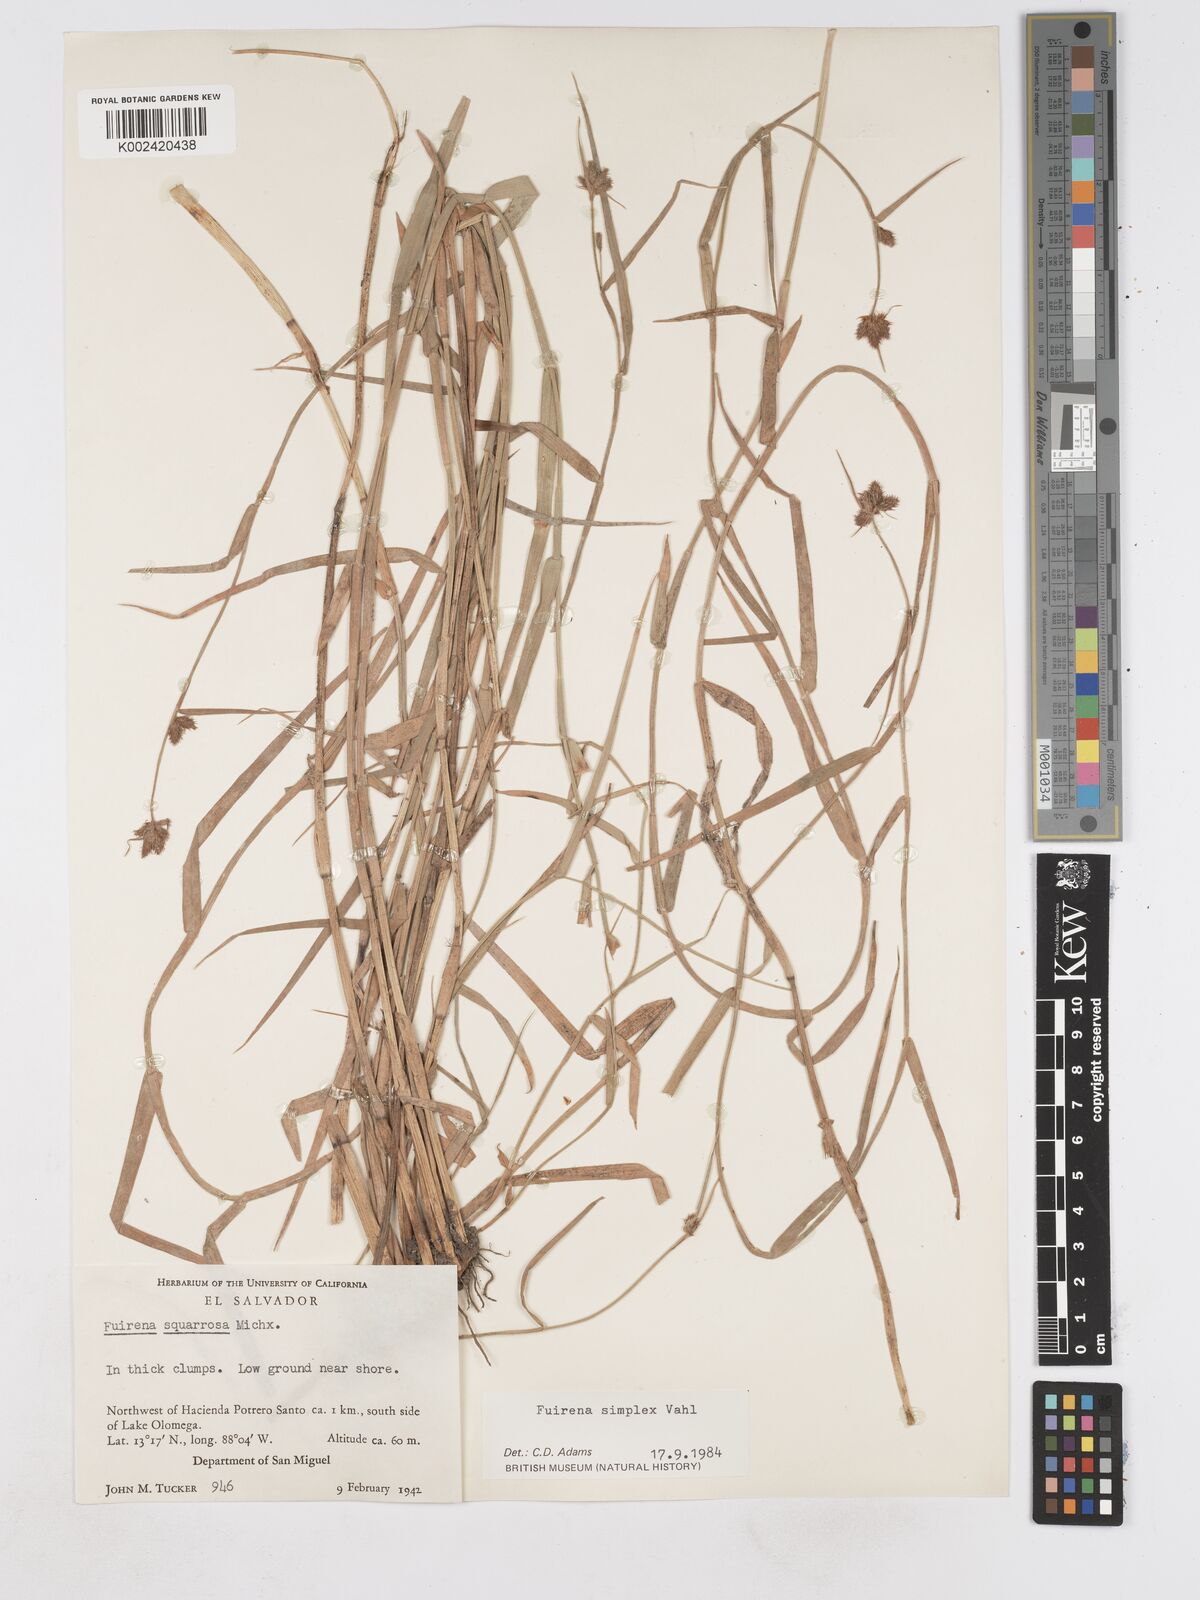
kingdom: Plantae
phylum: Tracheophyta
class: Liliopsida
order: Poales
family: Cyperaceae
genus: Fuirena
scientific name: Fuirena simplex
